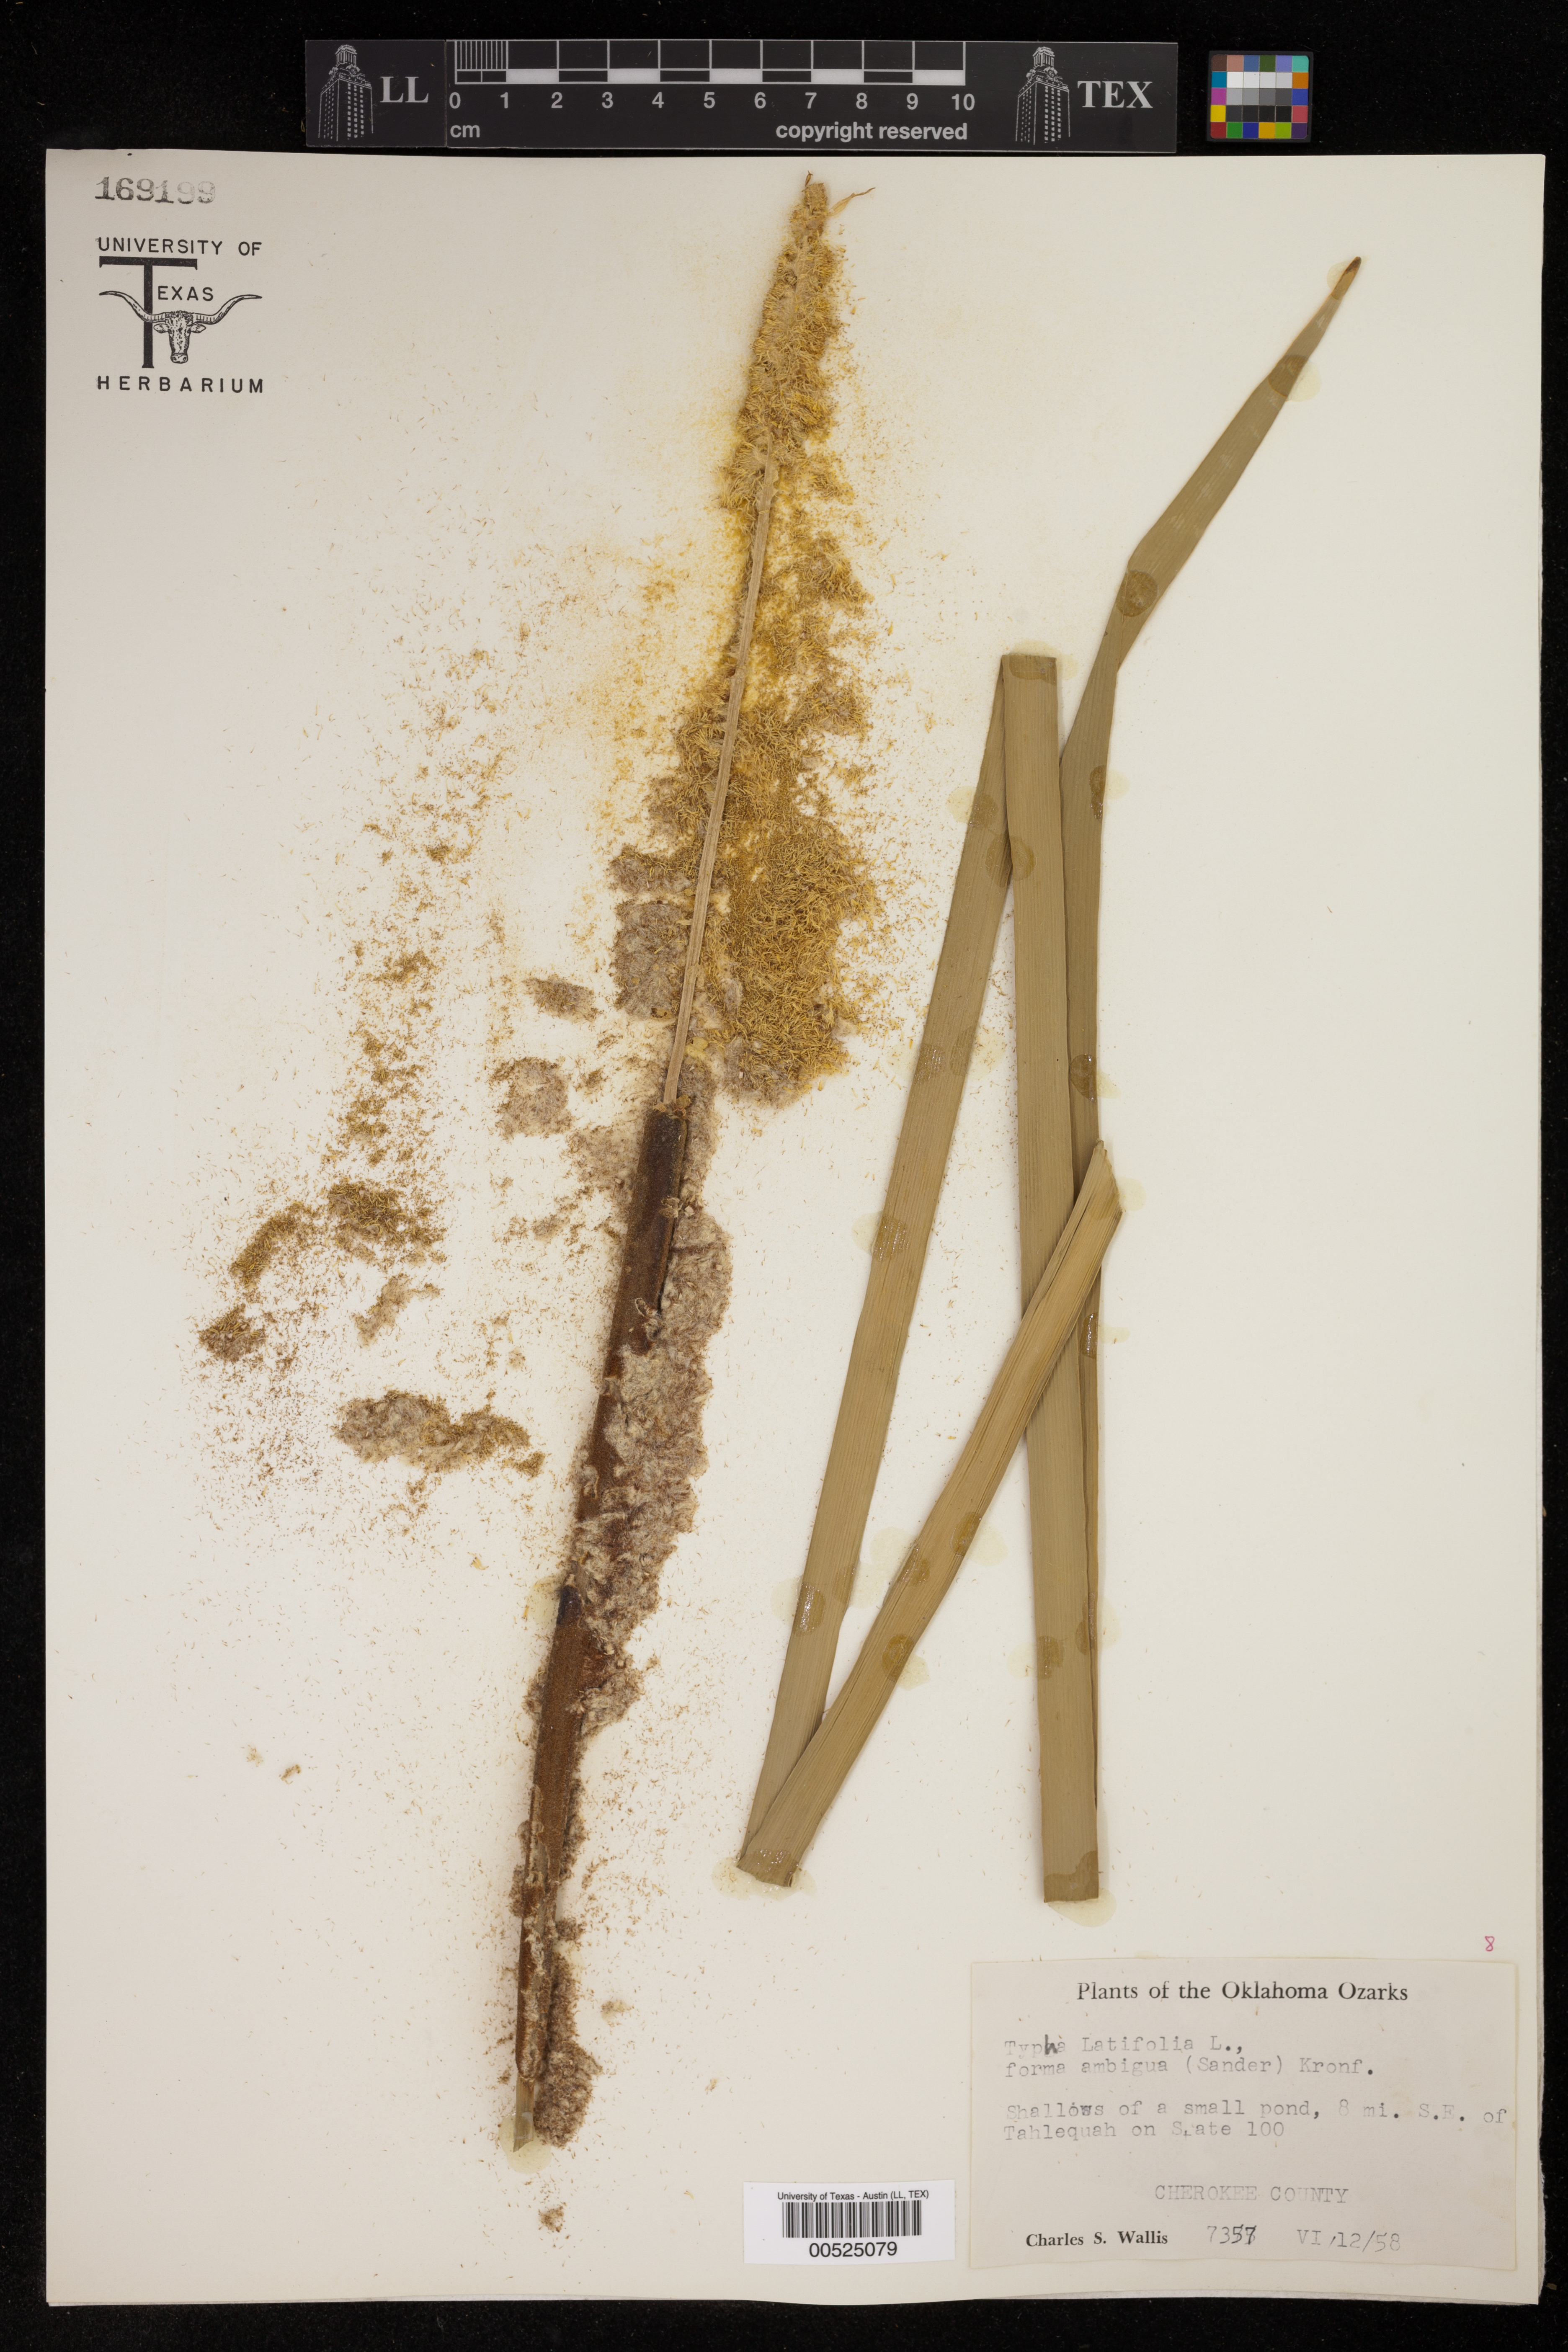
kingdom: Plantae
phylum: Tracheophyta
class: Liliopsida
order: Poales
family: Typhaceae
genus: Typha
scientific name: Typha latifolia
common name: Broadleaf cattail
